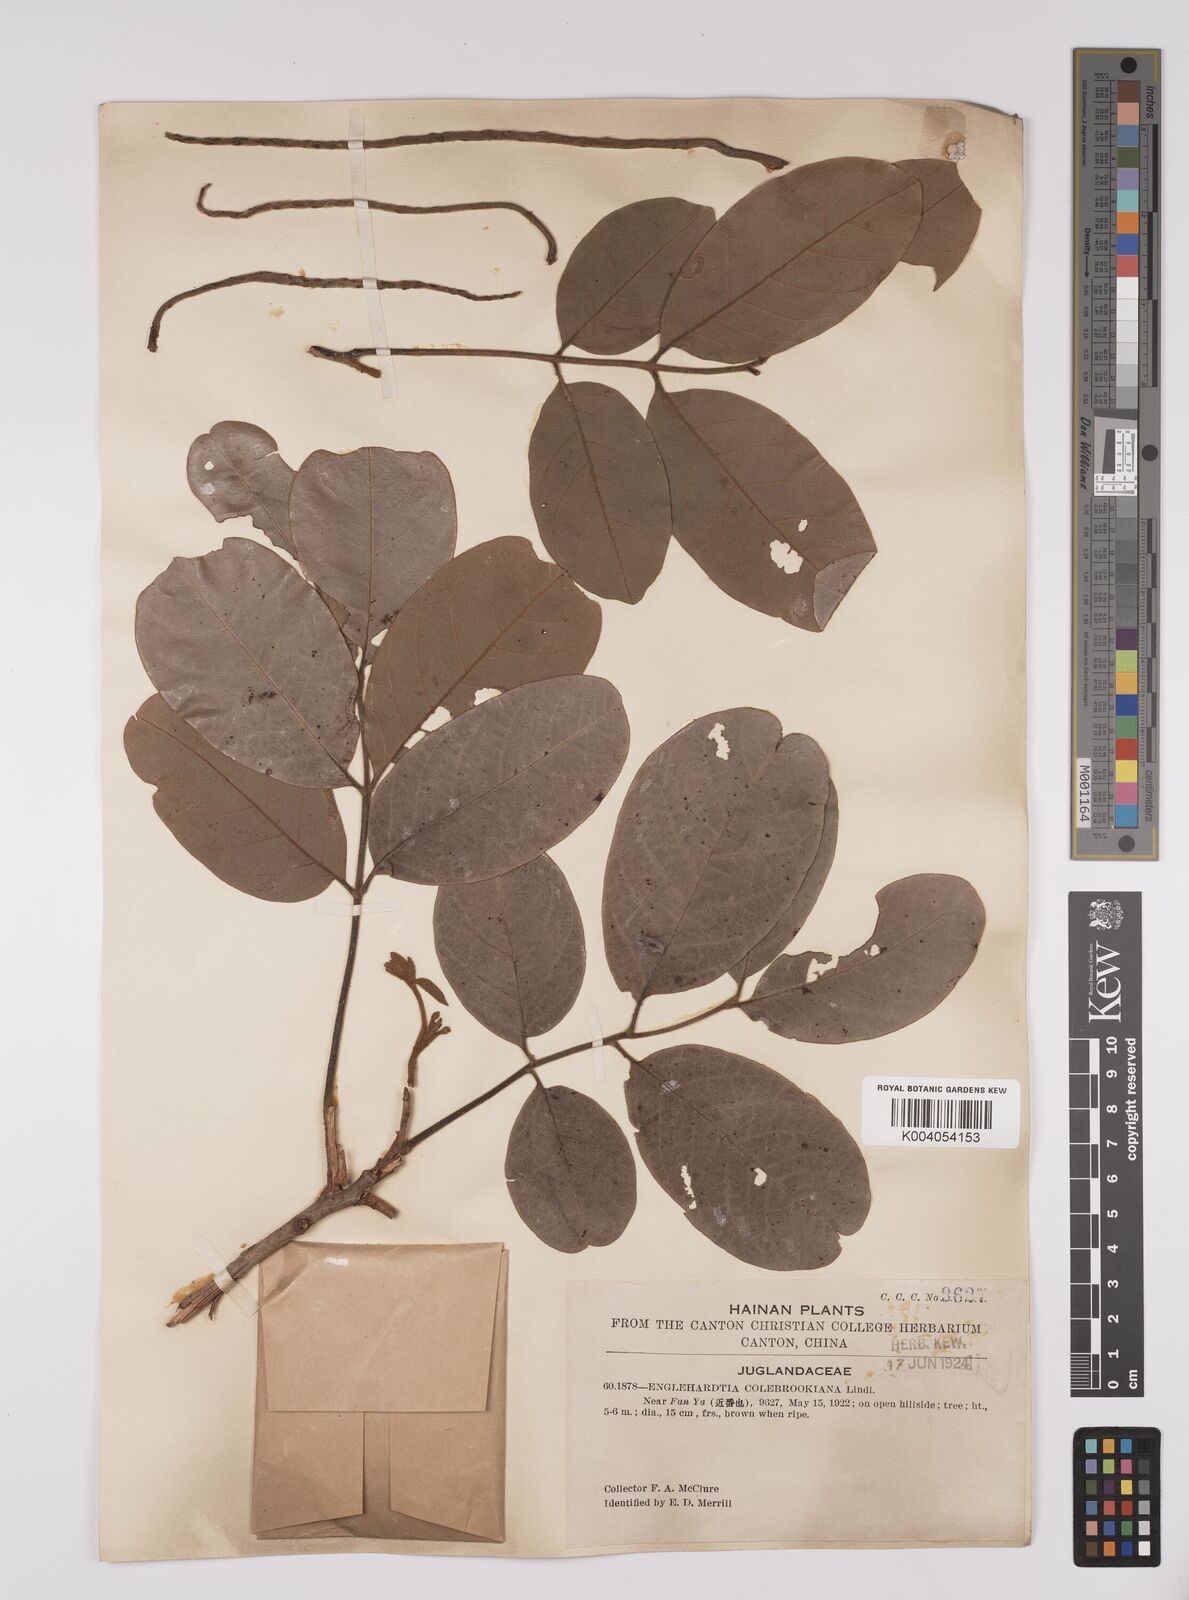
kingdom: Plantae
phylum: Tracheophyta
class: Magnoliopsida
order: Fagales
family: Juglandaceae
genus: Engelhardia
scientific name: Engelhardia spicata
